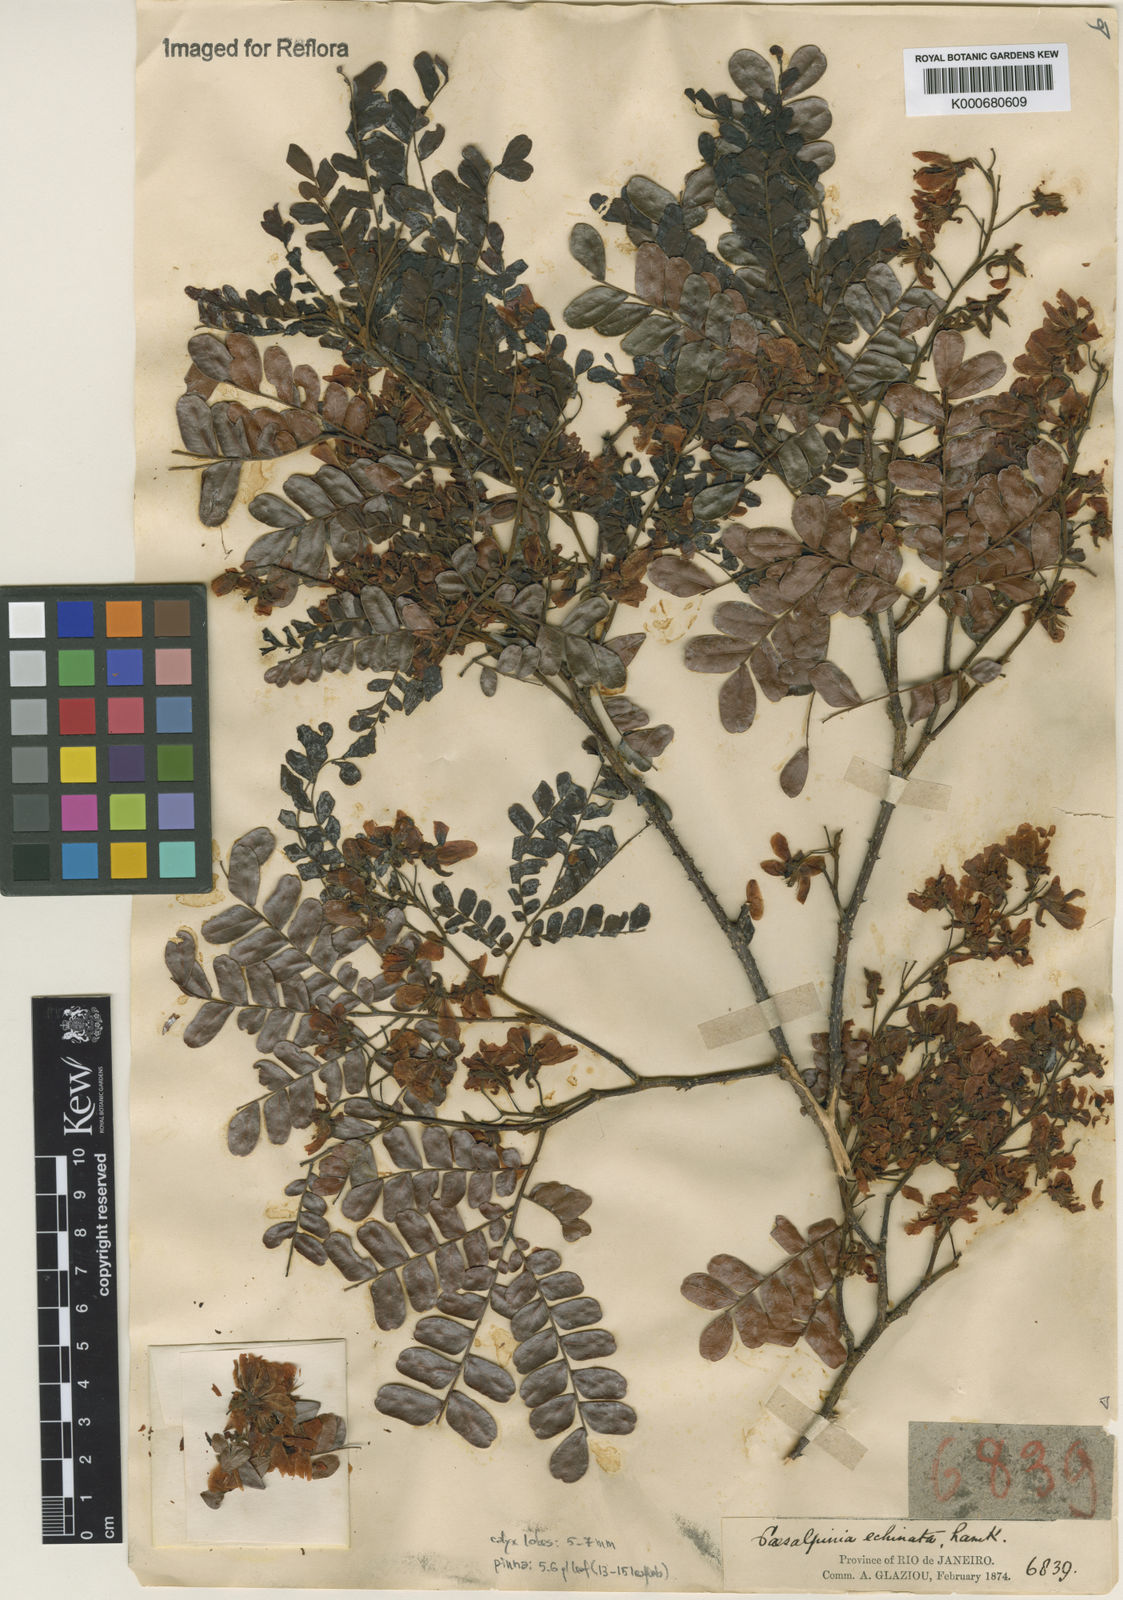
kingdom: Plantae
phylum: Tracheophyta
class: Magnoliopsida
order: Fabales
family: Fabaceae
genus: Paubrasilia
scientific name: Paubrasilia echinata
